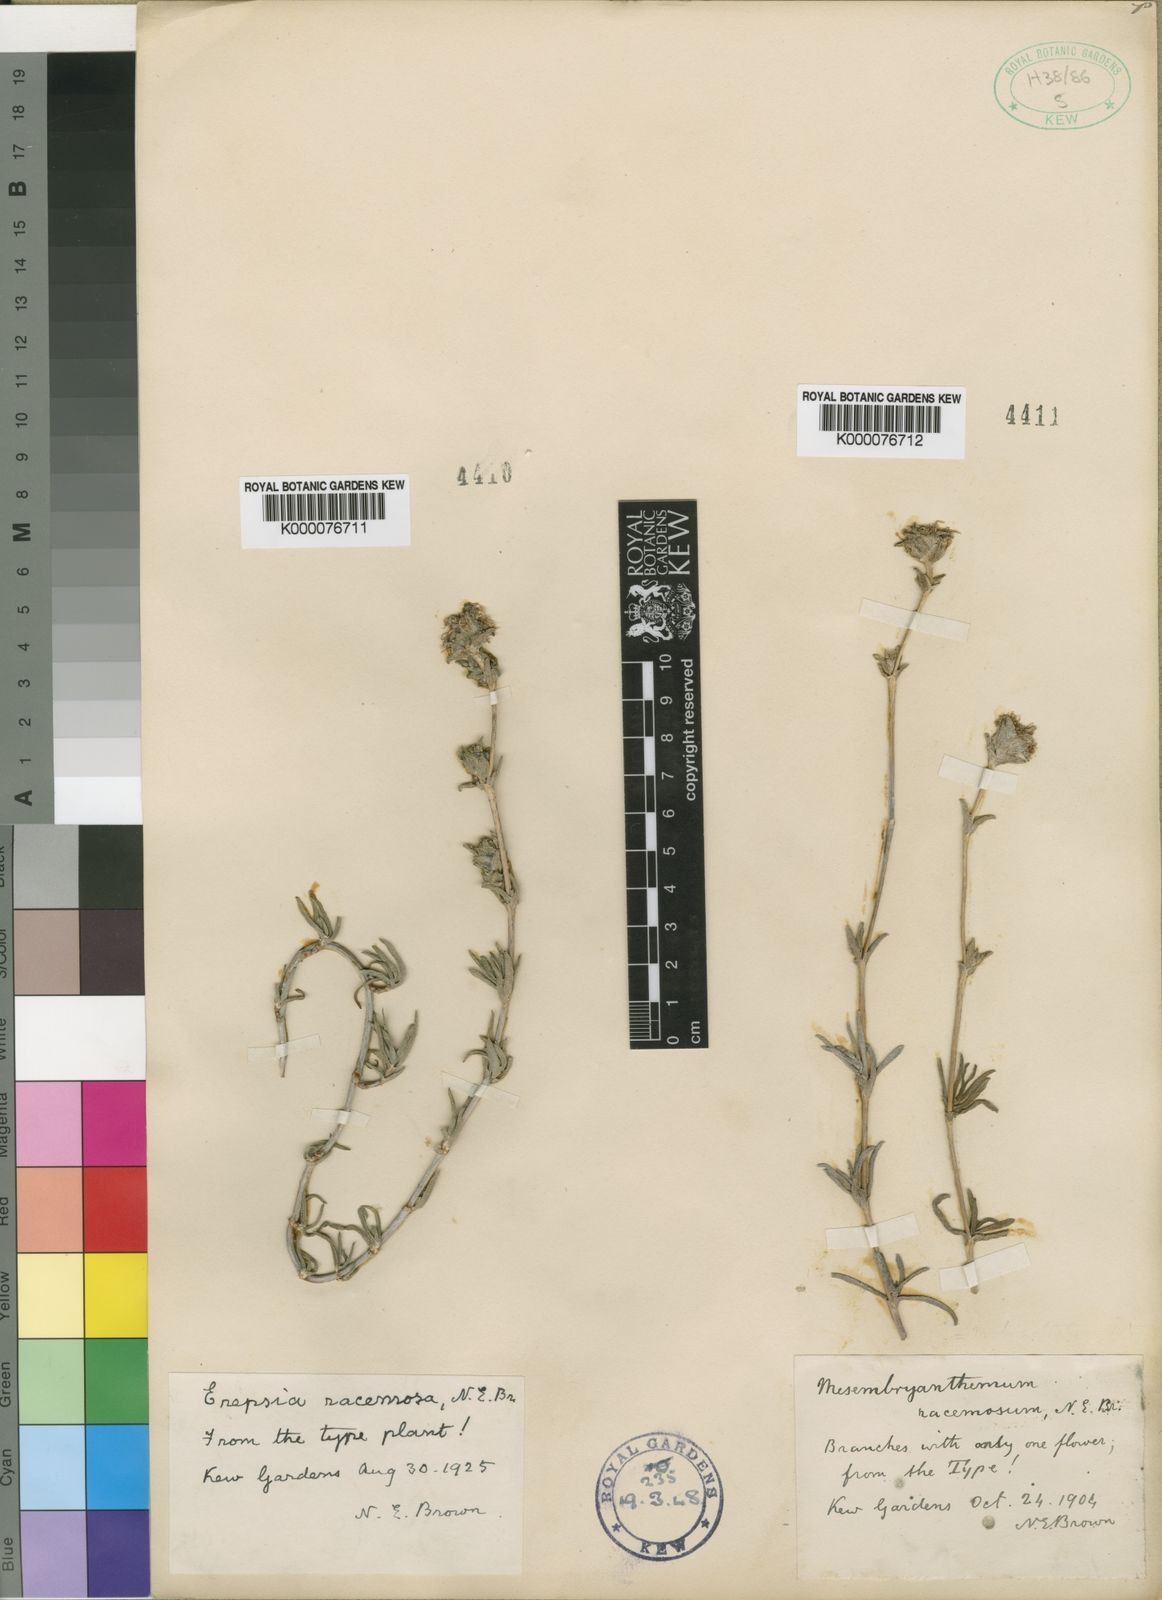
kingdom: Plantae
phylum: Tracheophyta
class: Magnoliopsida
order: Caryophyllales
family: Aizoaceae
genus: Erepsia
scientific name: Erepsia bracteata
